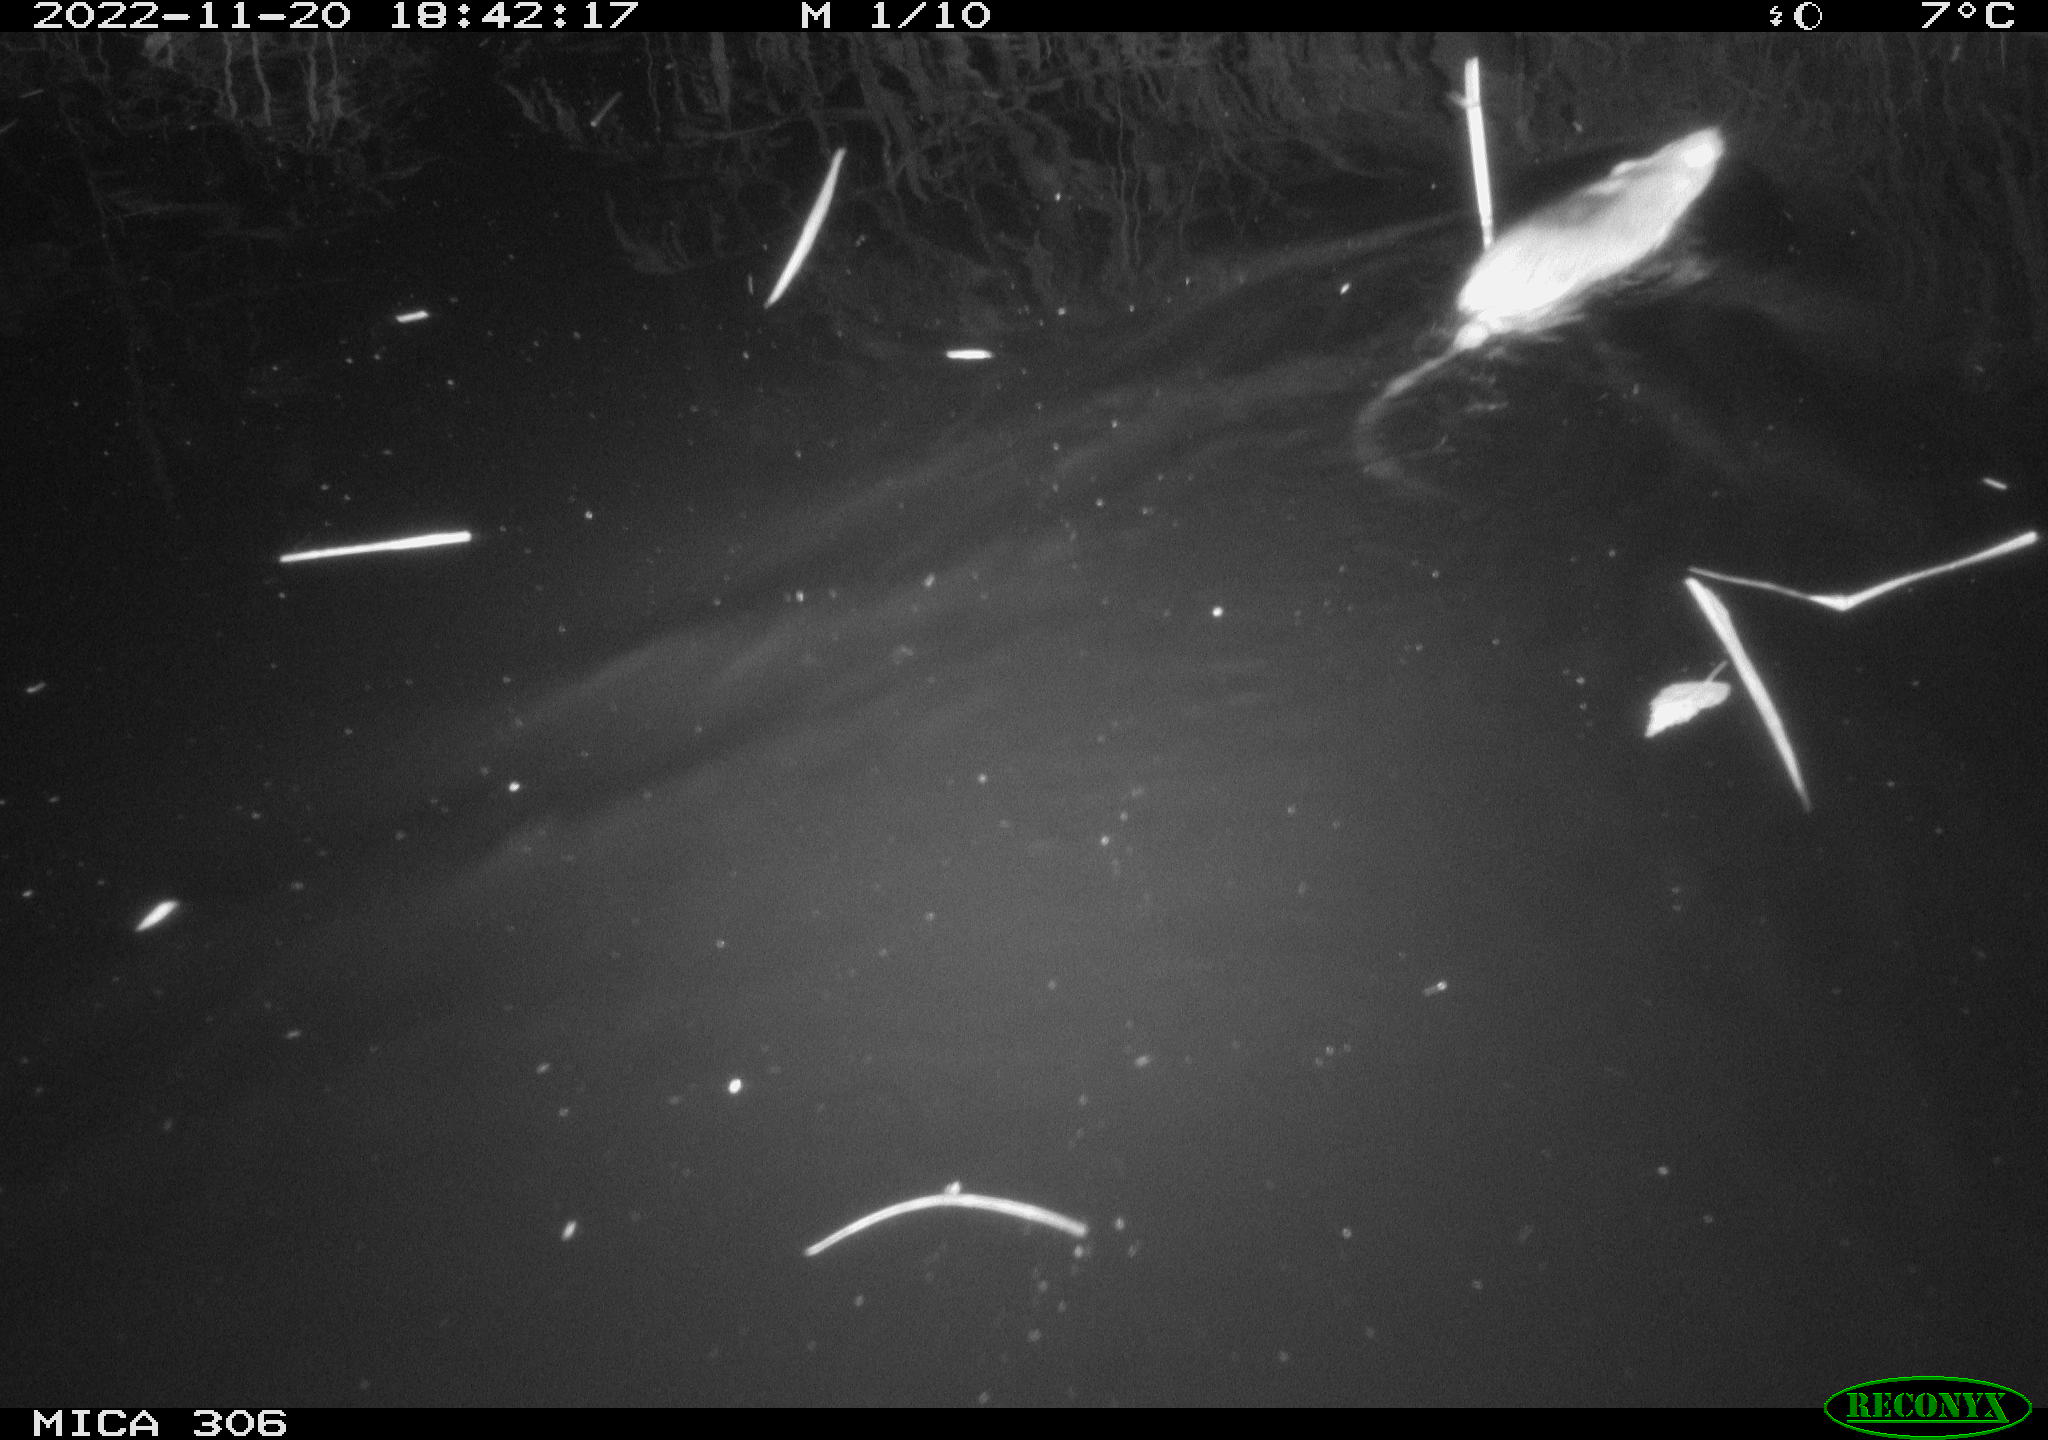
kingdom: Animalia
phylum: Chordata
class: Mammalia
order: Rodentia
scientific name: Rodentia
